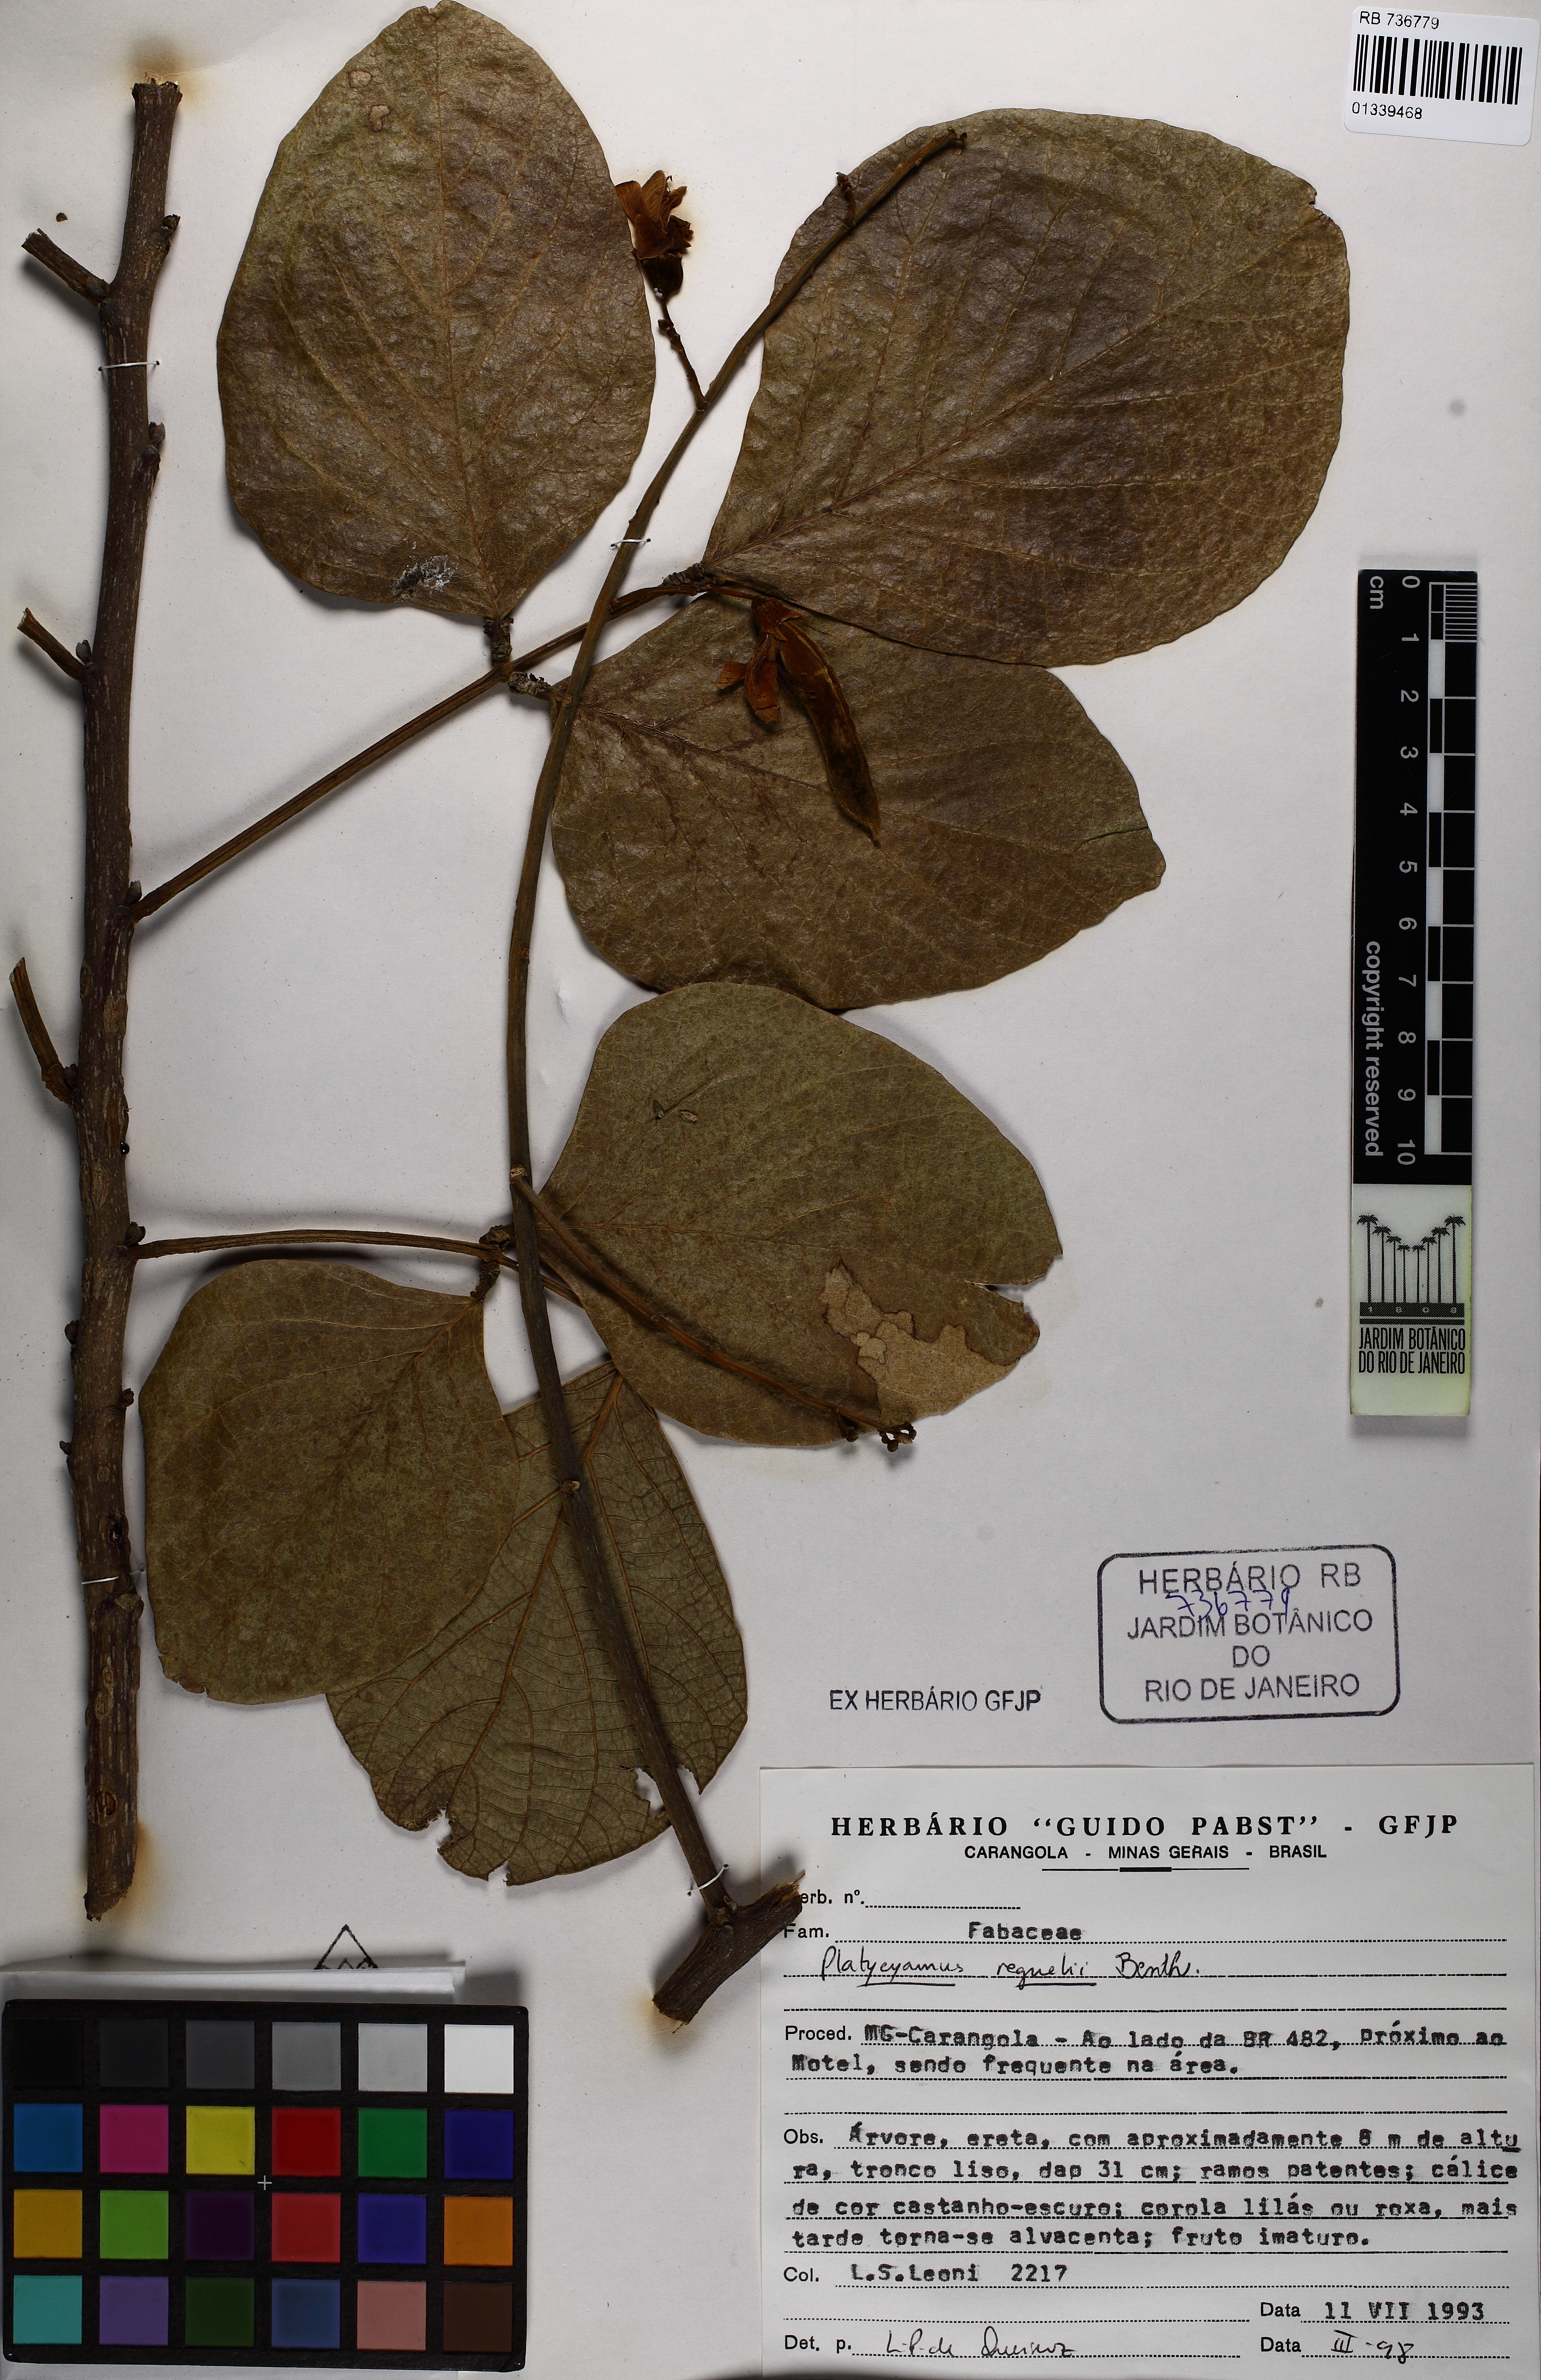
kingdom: Plantae
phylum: Tracheophyta
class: Magnoliopsida
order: Fabales
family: Fabaceae
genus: Platycyamus
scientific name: Platycyamus regnellii
